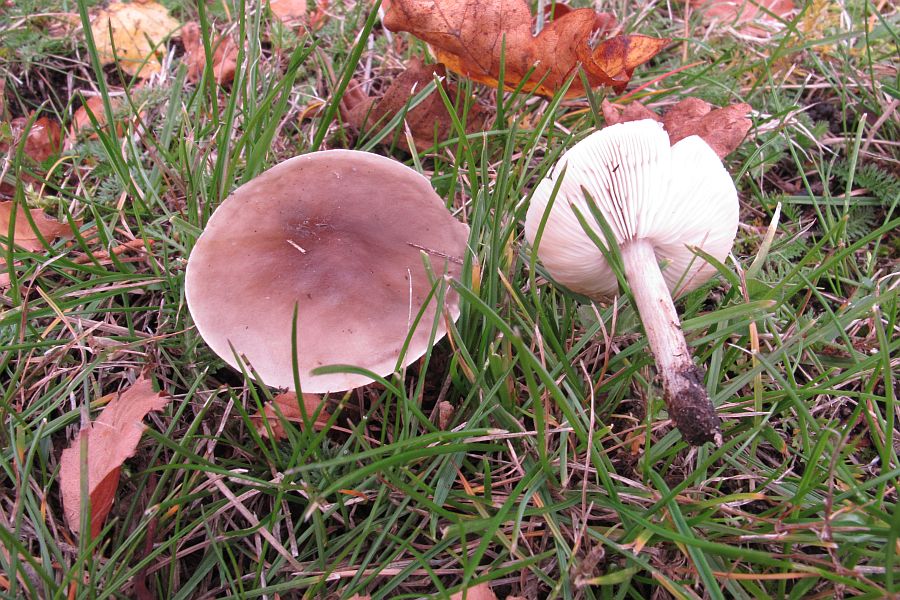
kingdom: Fungi
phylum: Basidiomycota
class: Agaricomycetes
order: Agaricales
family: Tricholomataceae
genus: Melanoleuca
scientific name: Melanoleuca microcephala
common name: spinkel munkehat
